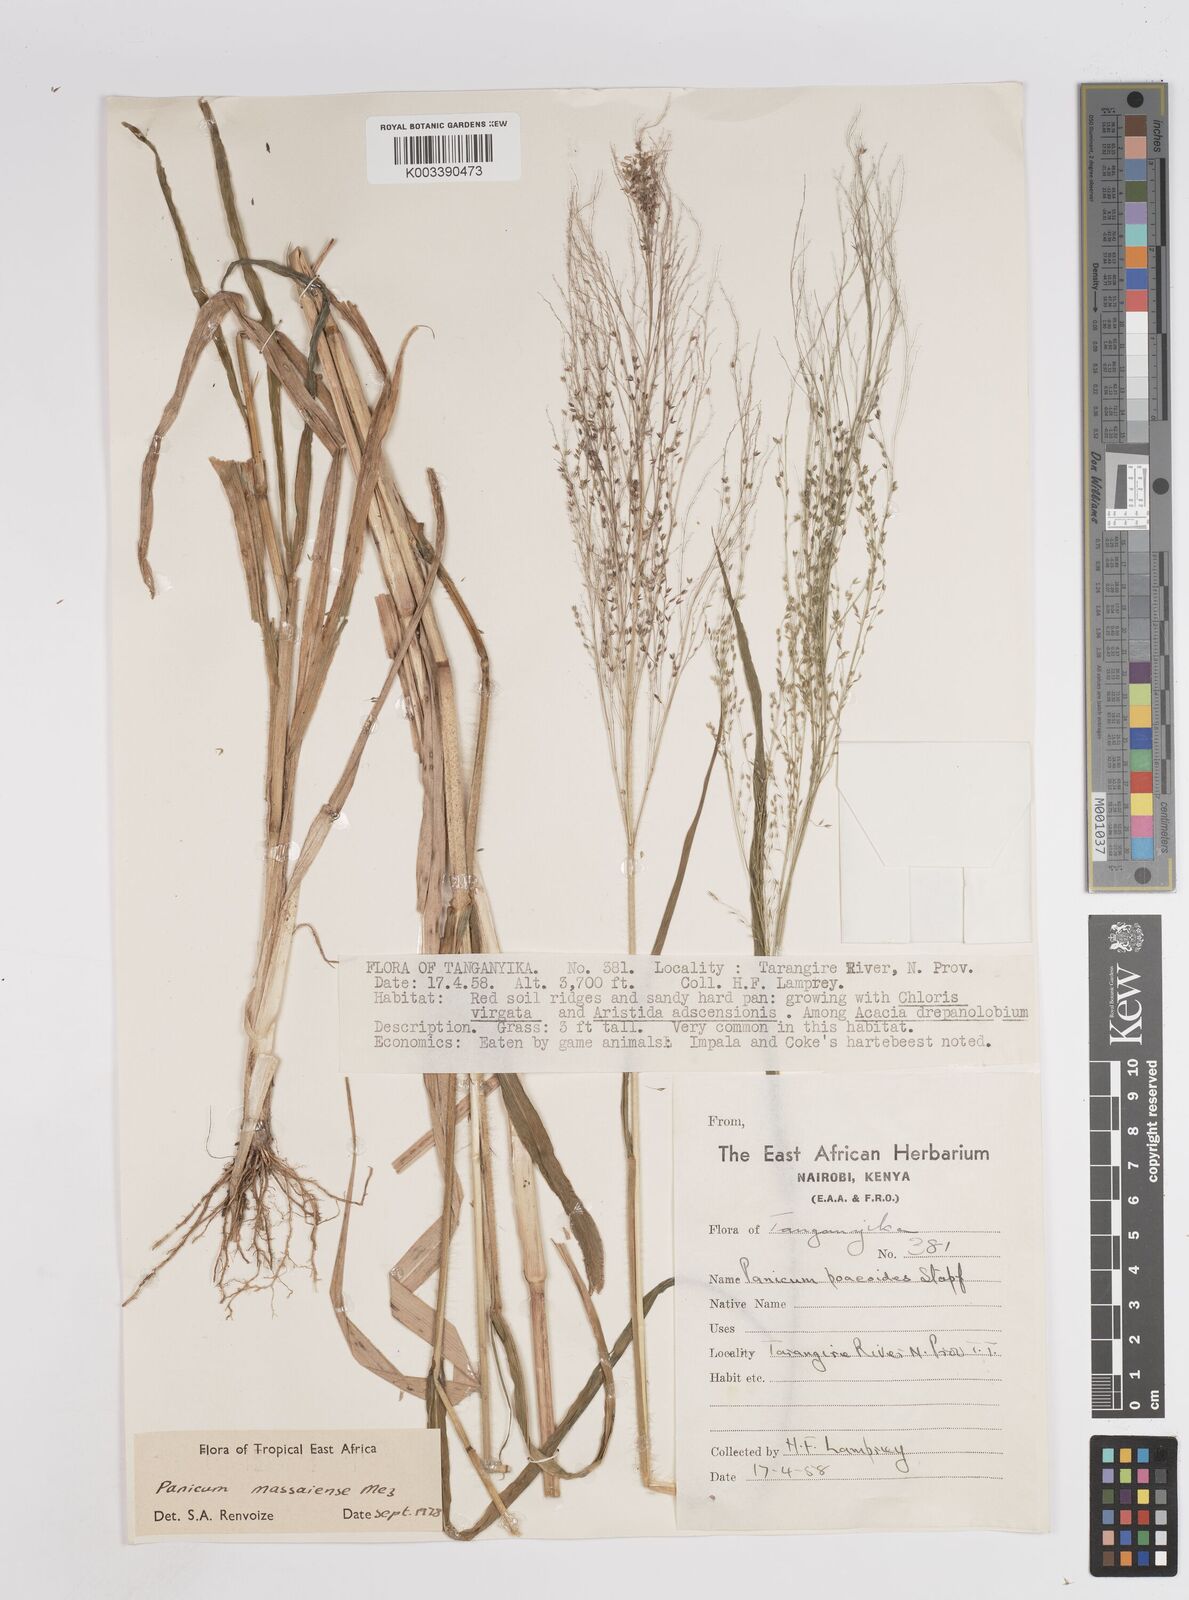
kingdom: Plantae
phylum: Tracheophyta
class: Liliopsida
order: Poales
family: Poaceae
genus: Panicum
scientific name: Panicum massaiense
